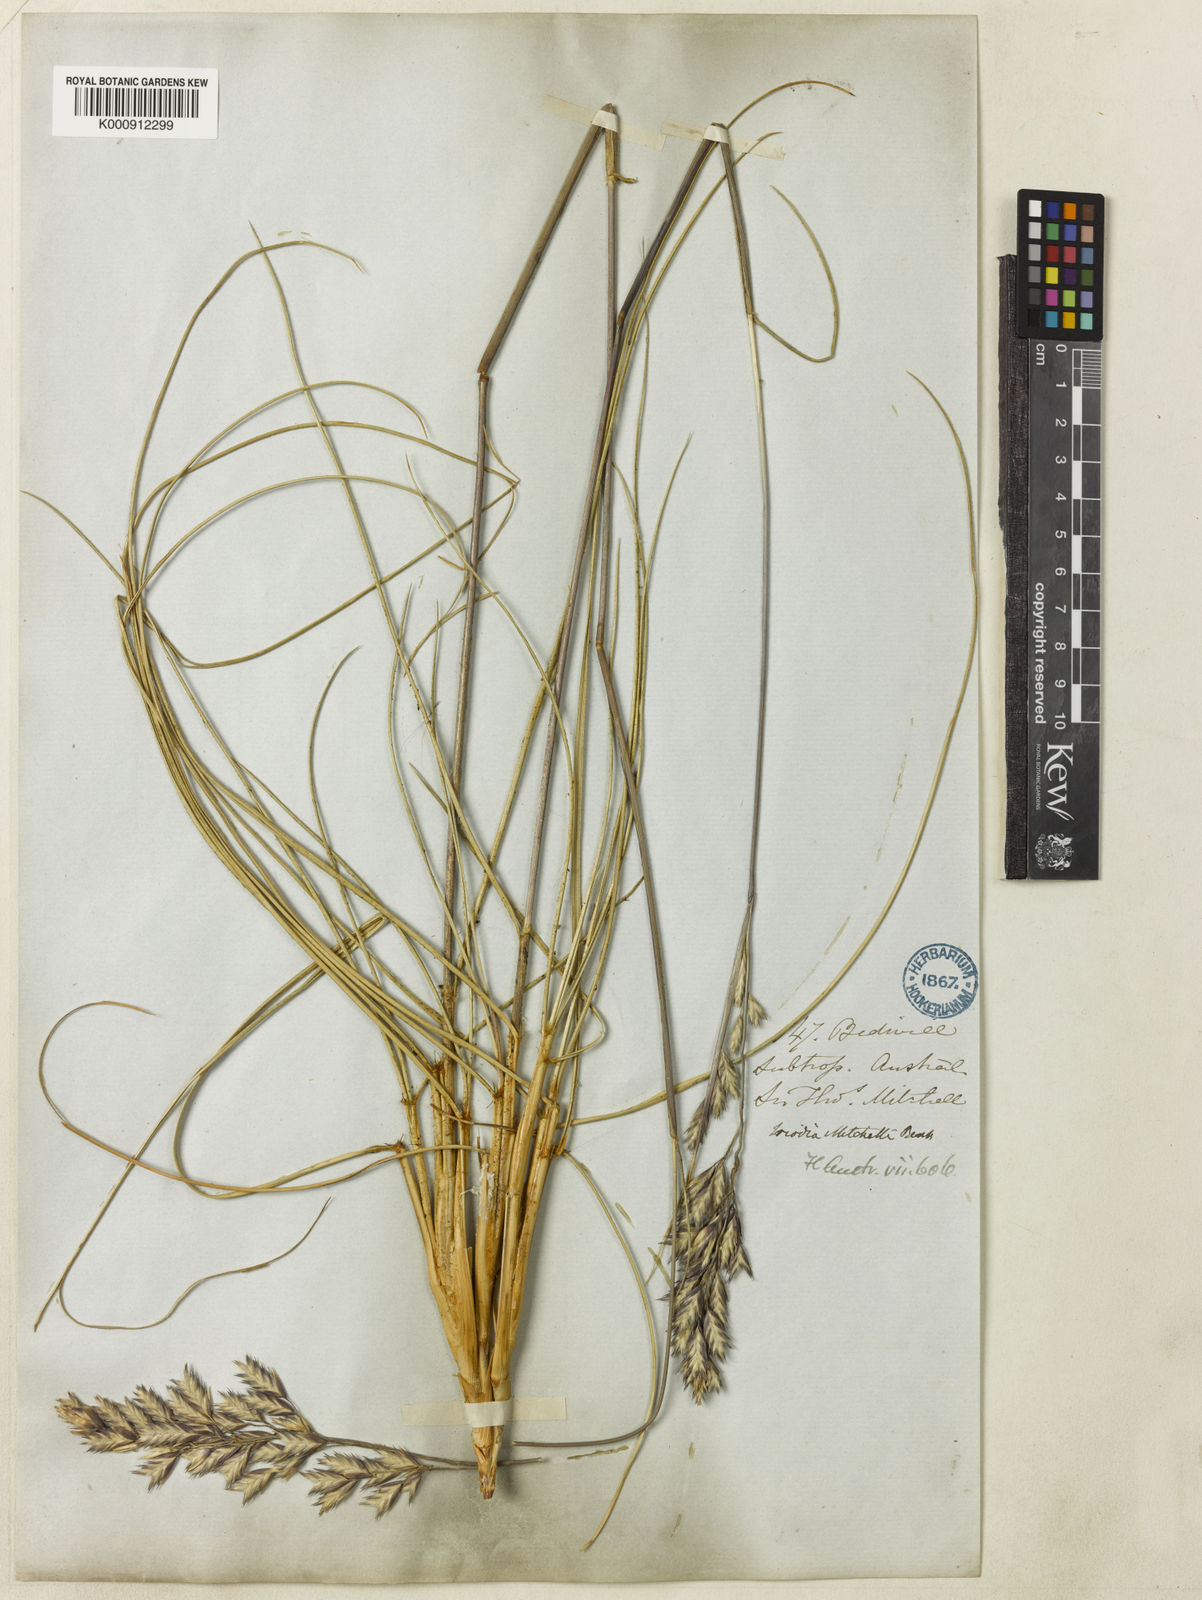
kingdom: Plantae
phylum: Tracheophyta
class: Liliopsida
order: Poales
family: Poaceae
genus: Triodia
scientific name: Triodia mitchellii
